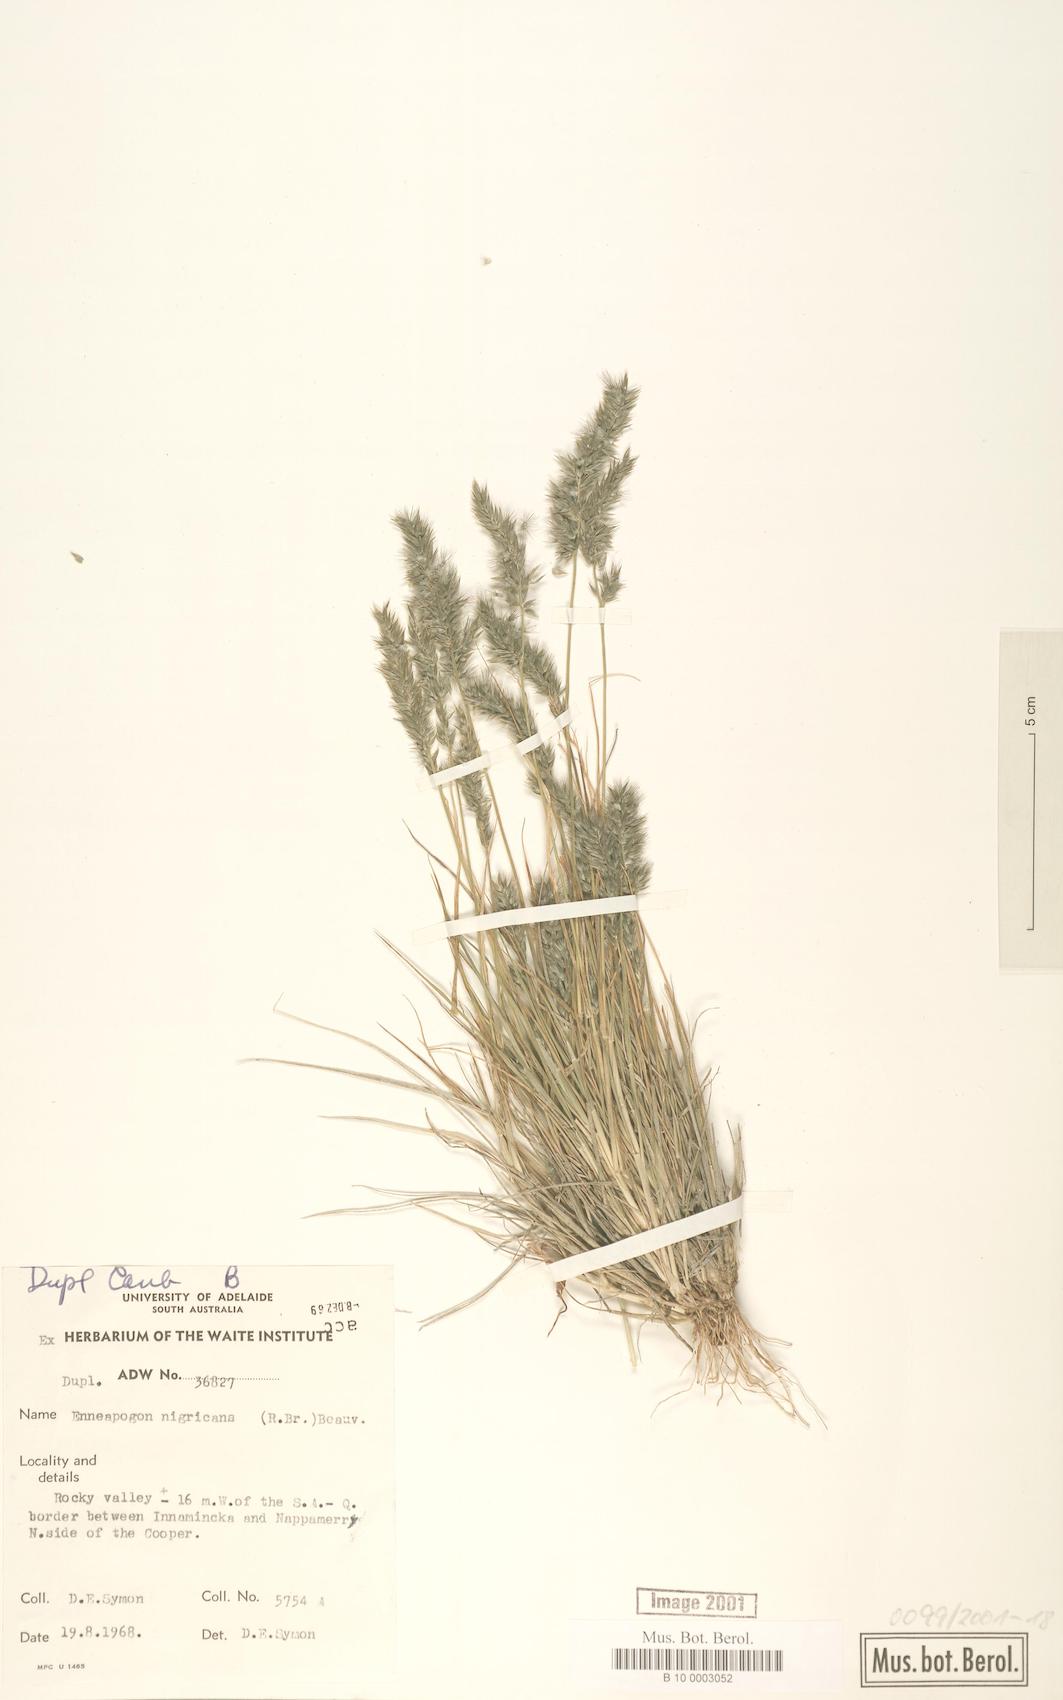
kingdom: Plantae
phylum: Tracheophyta
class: Liliopsida
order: Poales
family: Poaceae
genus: Enneapogon
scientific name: Enneapogon nigricans
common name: Pappus grass
